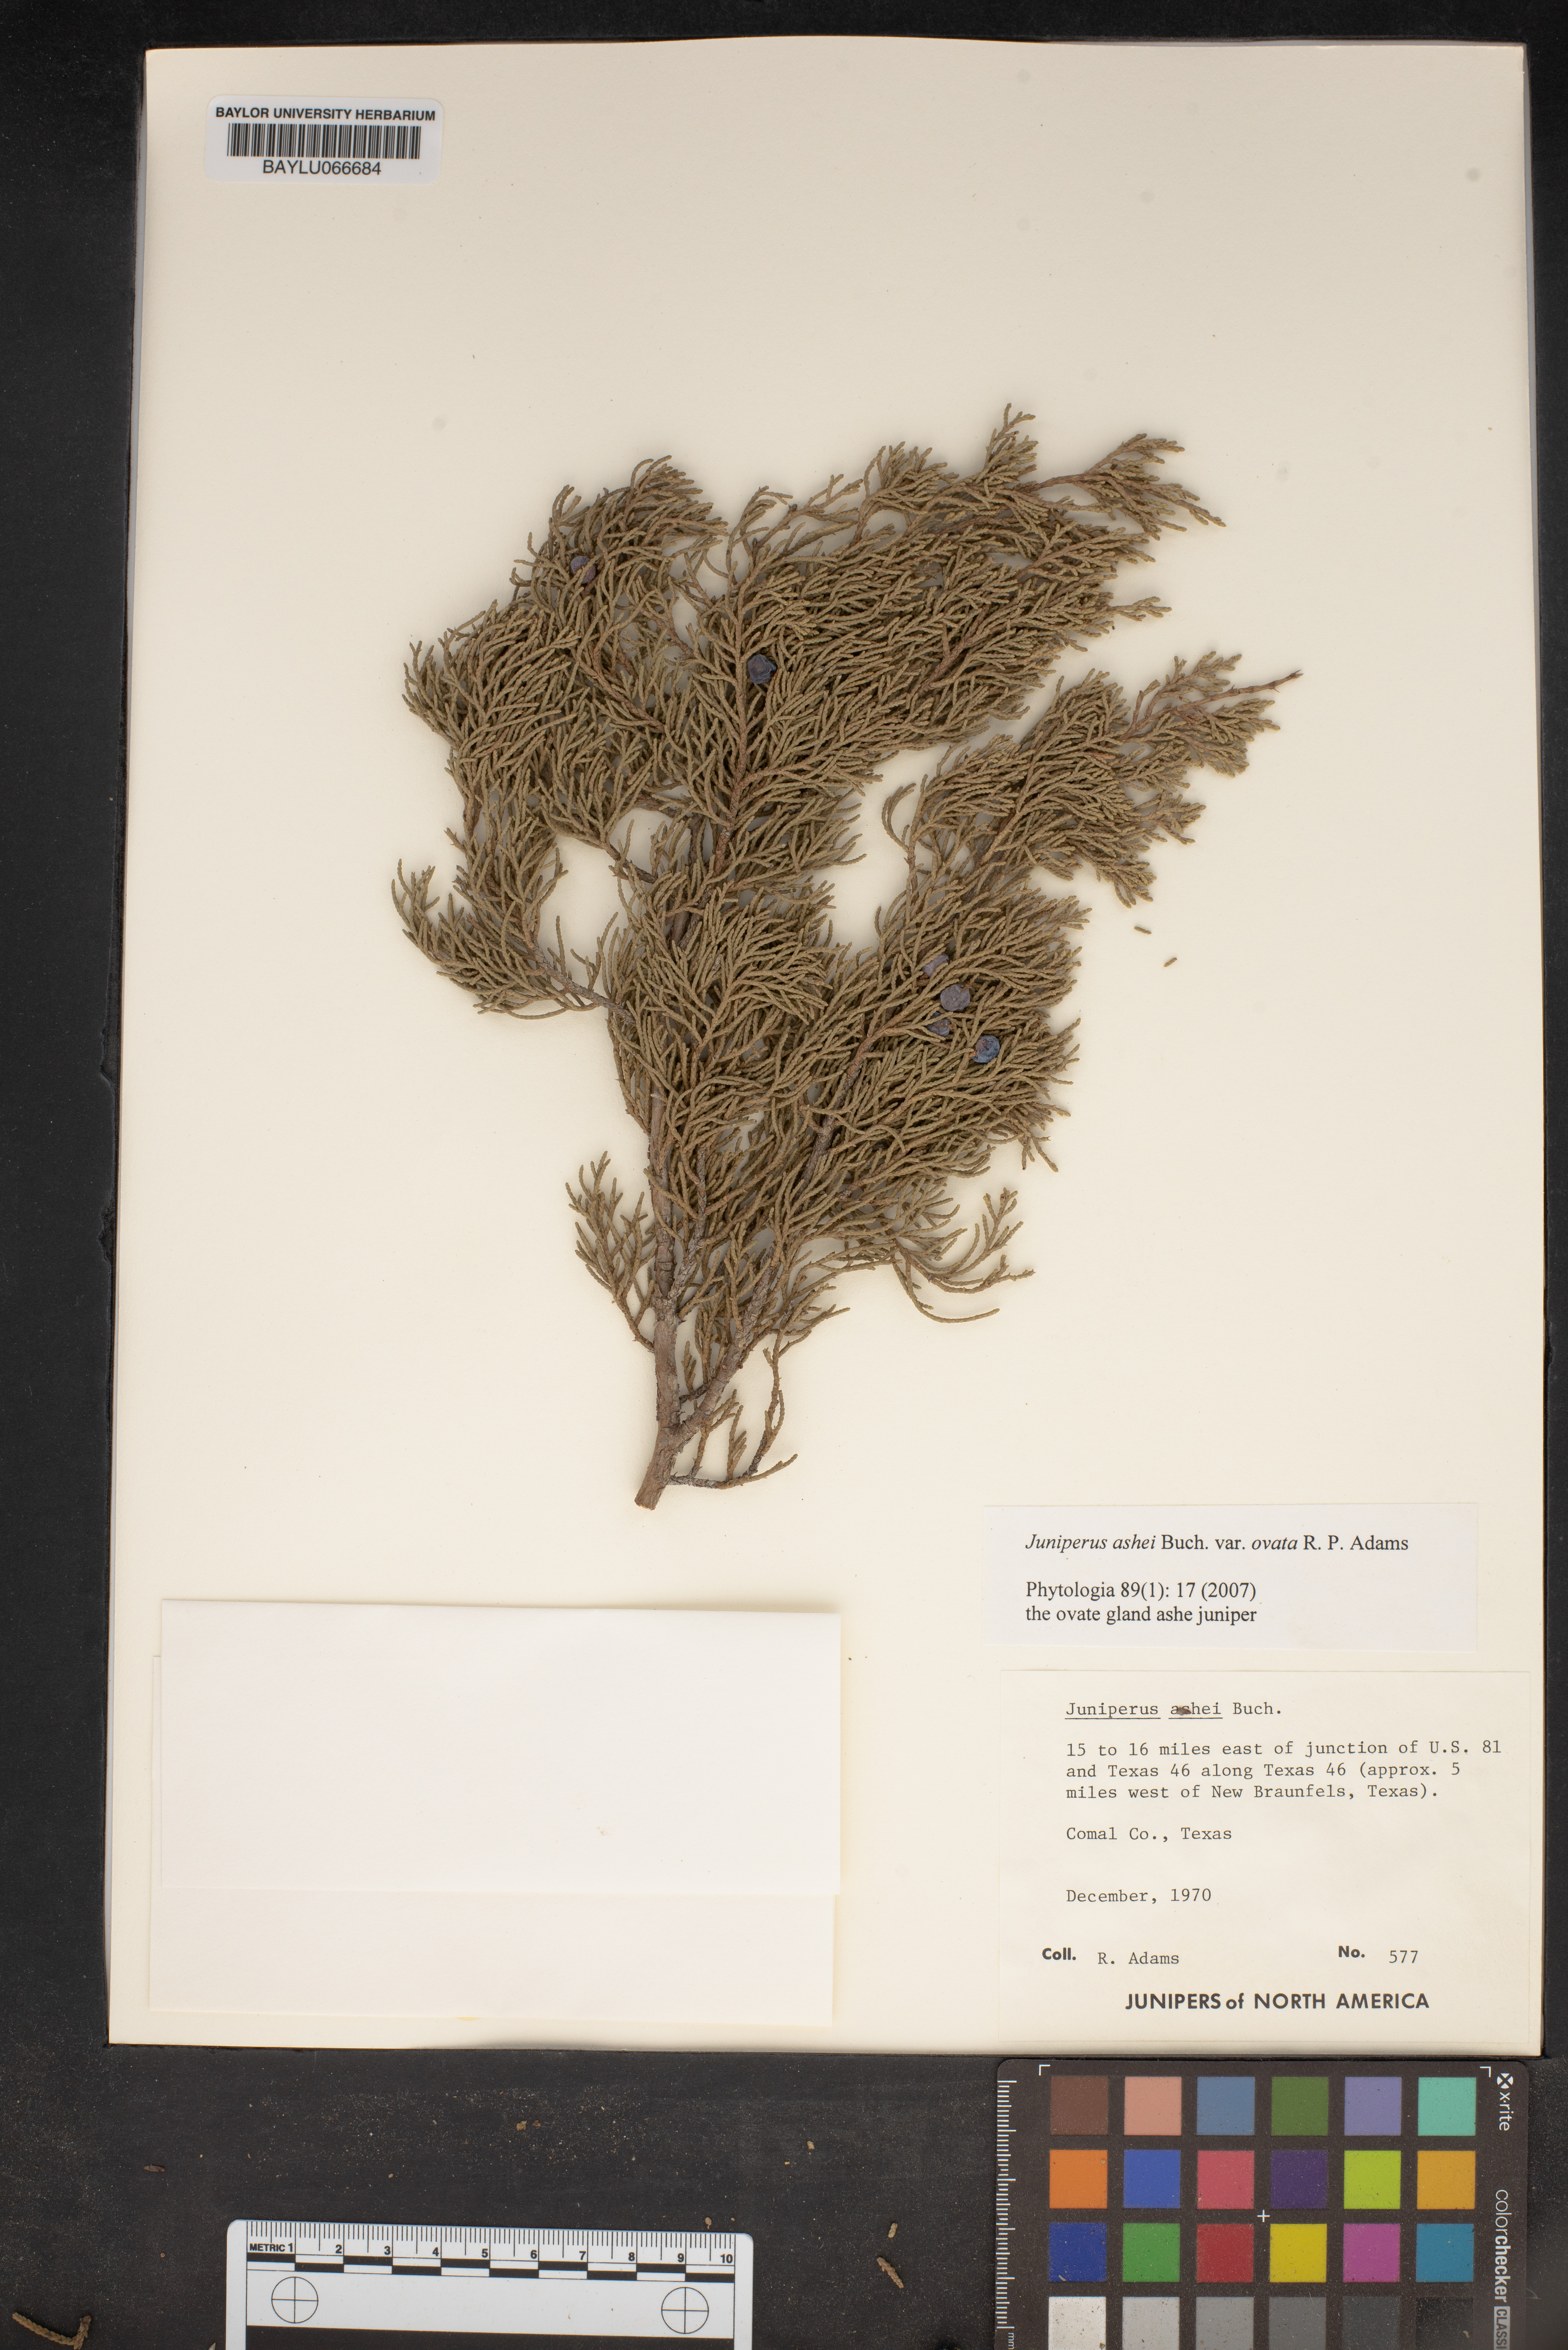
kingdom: Plantae
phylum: Tracheophyta
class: Pinopsida
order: Pinales
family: Cupressaceae
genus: Juniperus
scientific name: Juniperus ashei
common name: Mexican juniper
